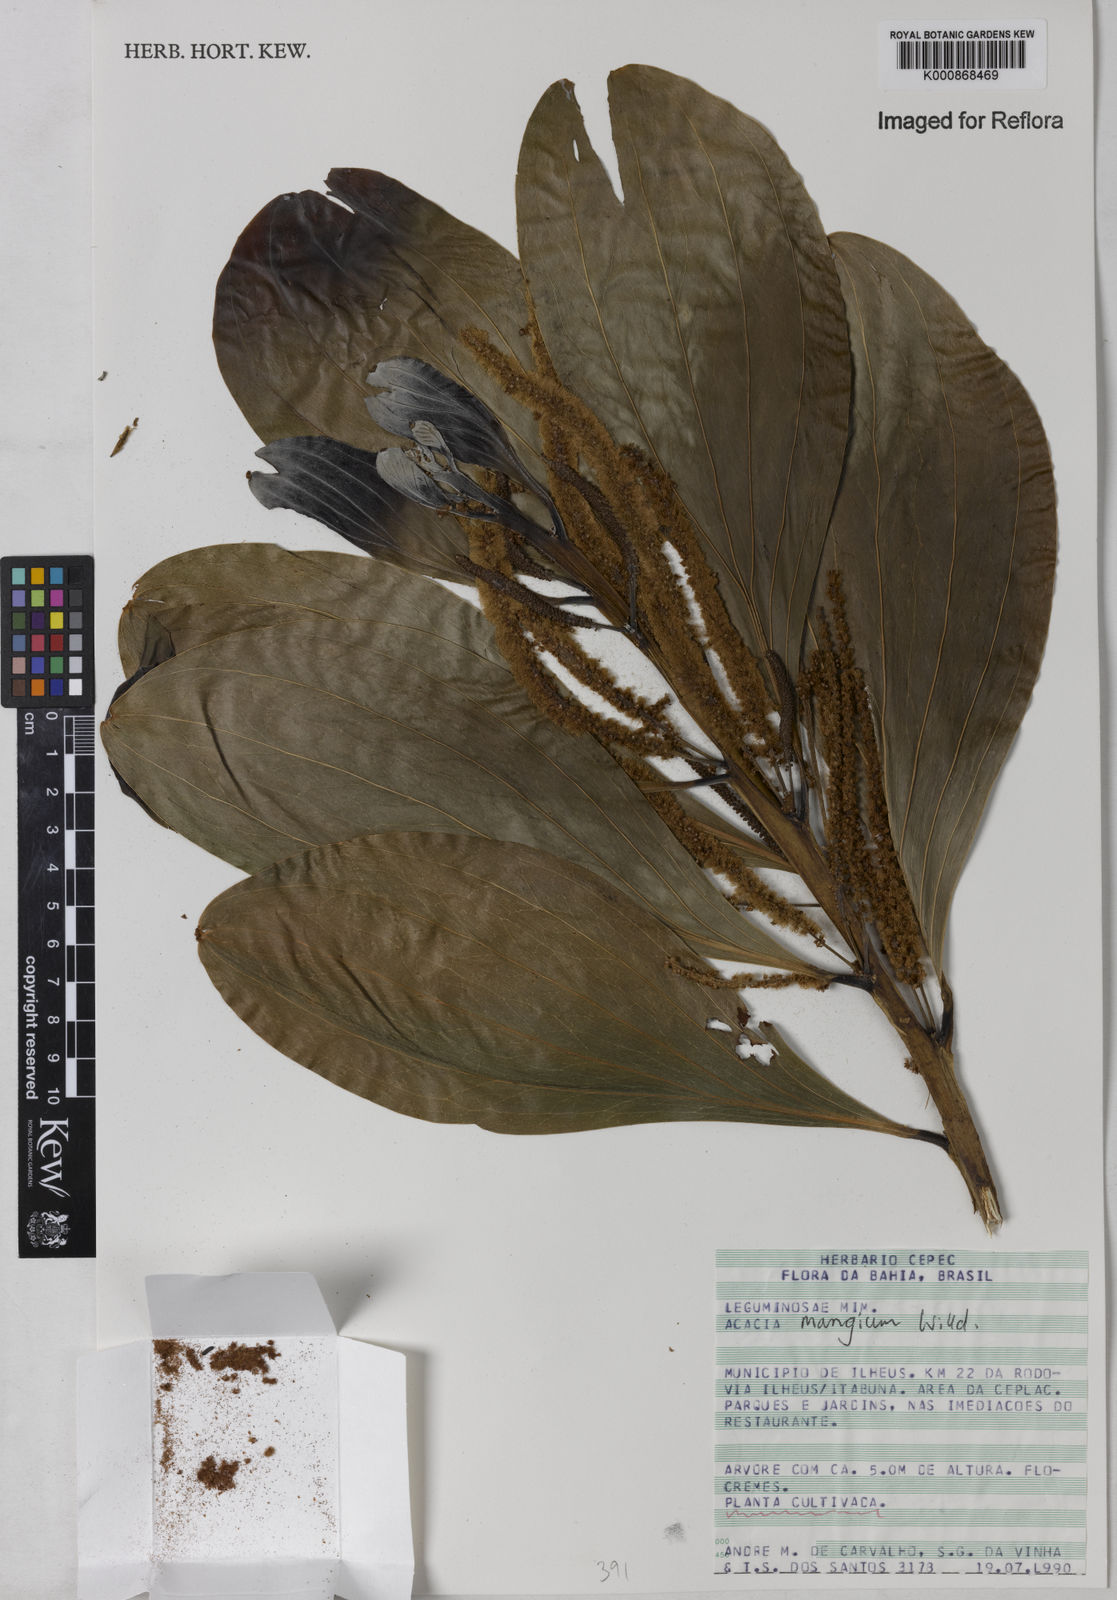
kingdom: Plantae
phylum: Tracheophyta
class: Magnoliopsida
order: Fabales
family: Fabaceae
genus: Acacia
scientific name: Acacia mangium
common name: Black wattle
